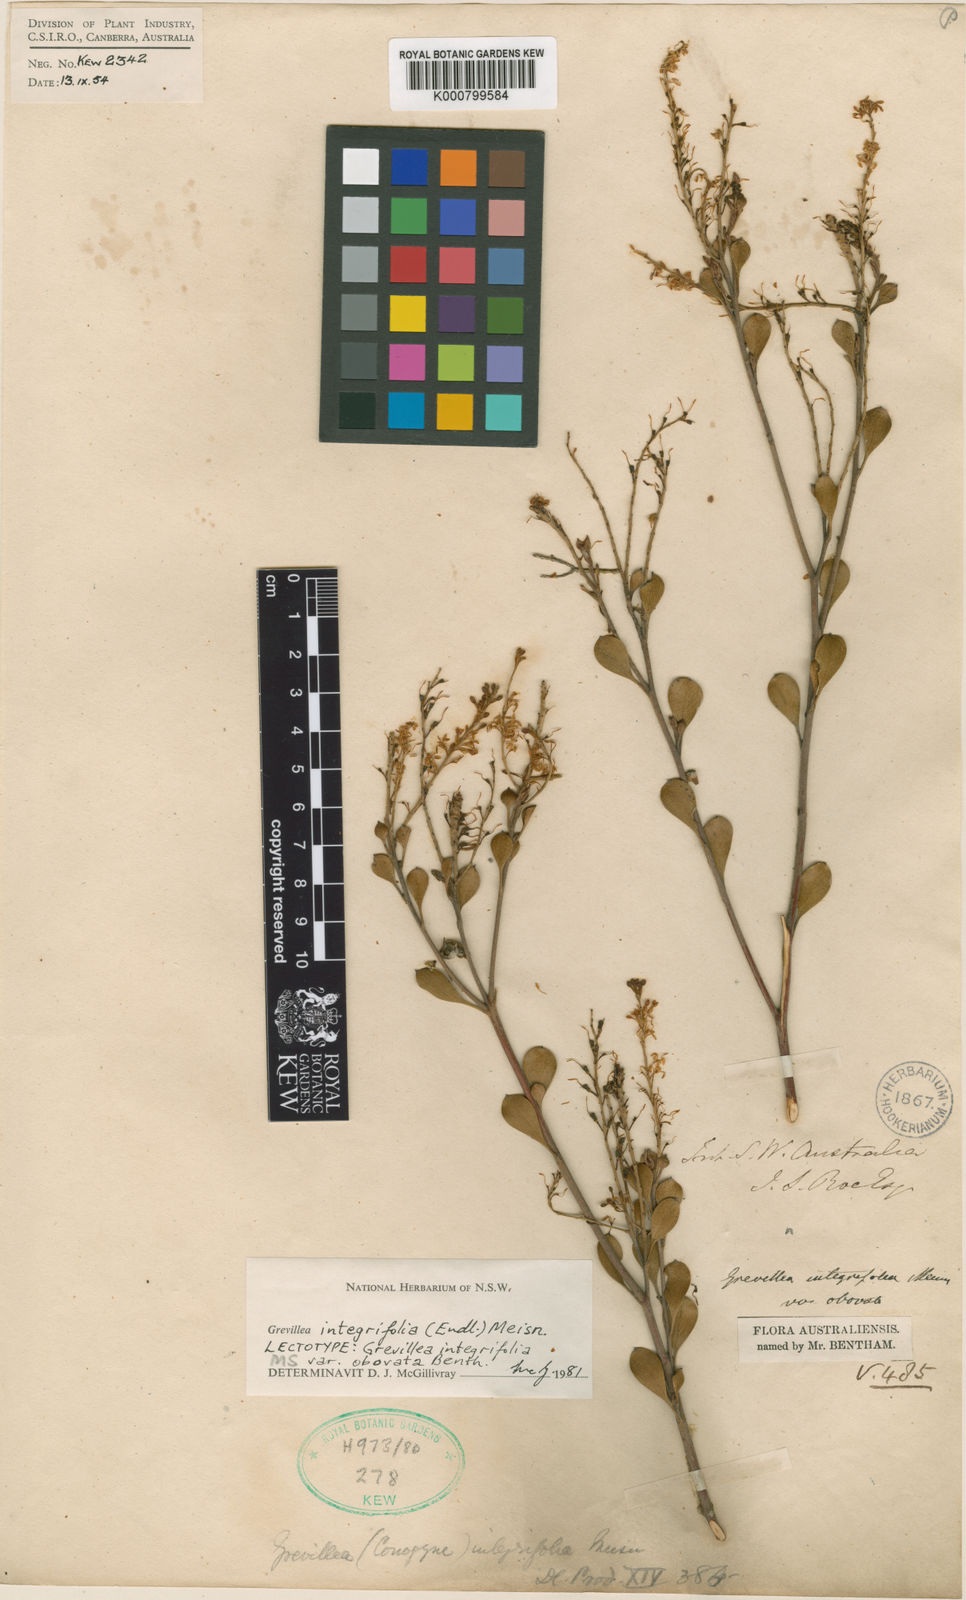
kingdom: Plantae
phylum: Tracheophyta
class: Magnoliopsida
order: Proteales
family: Proteaceae
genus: Grevillea
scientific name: Grevillea integrifolia
